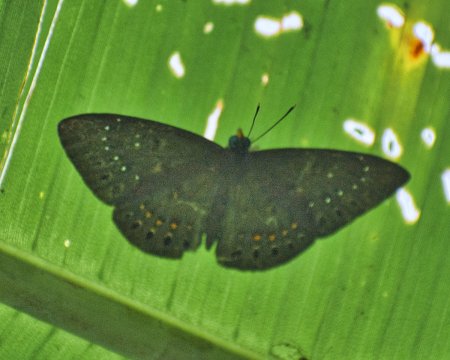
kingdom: Animalia
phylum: Cnidaria
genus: Eurybia
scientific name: Eurybia elvina
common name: Blind Eurybia
